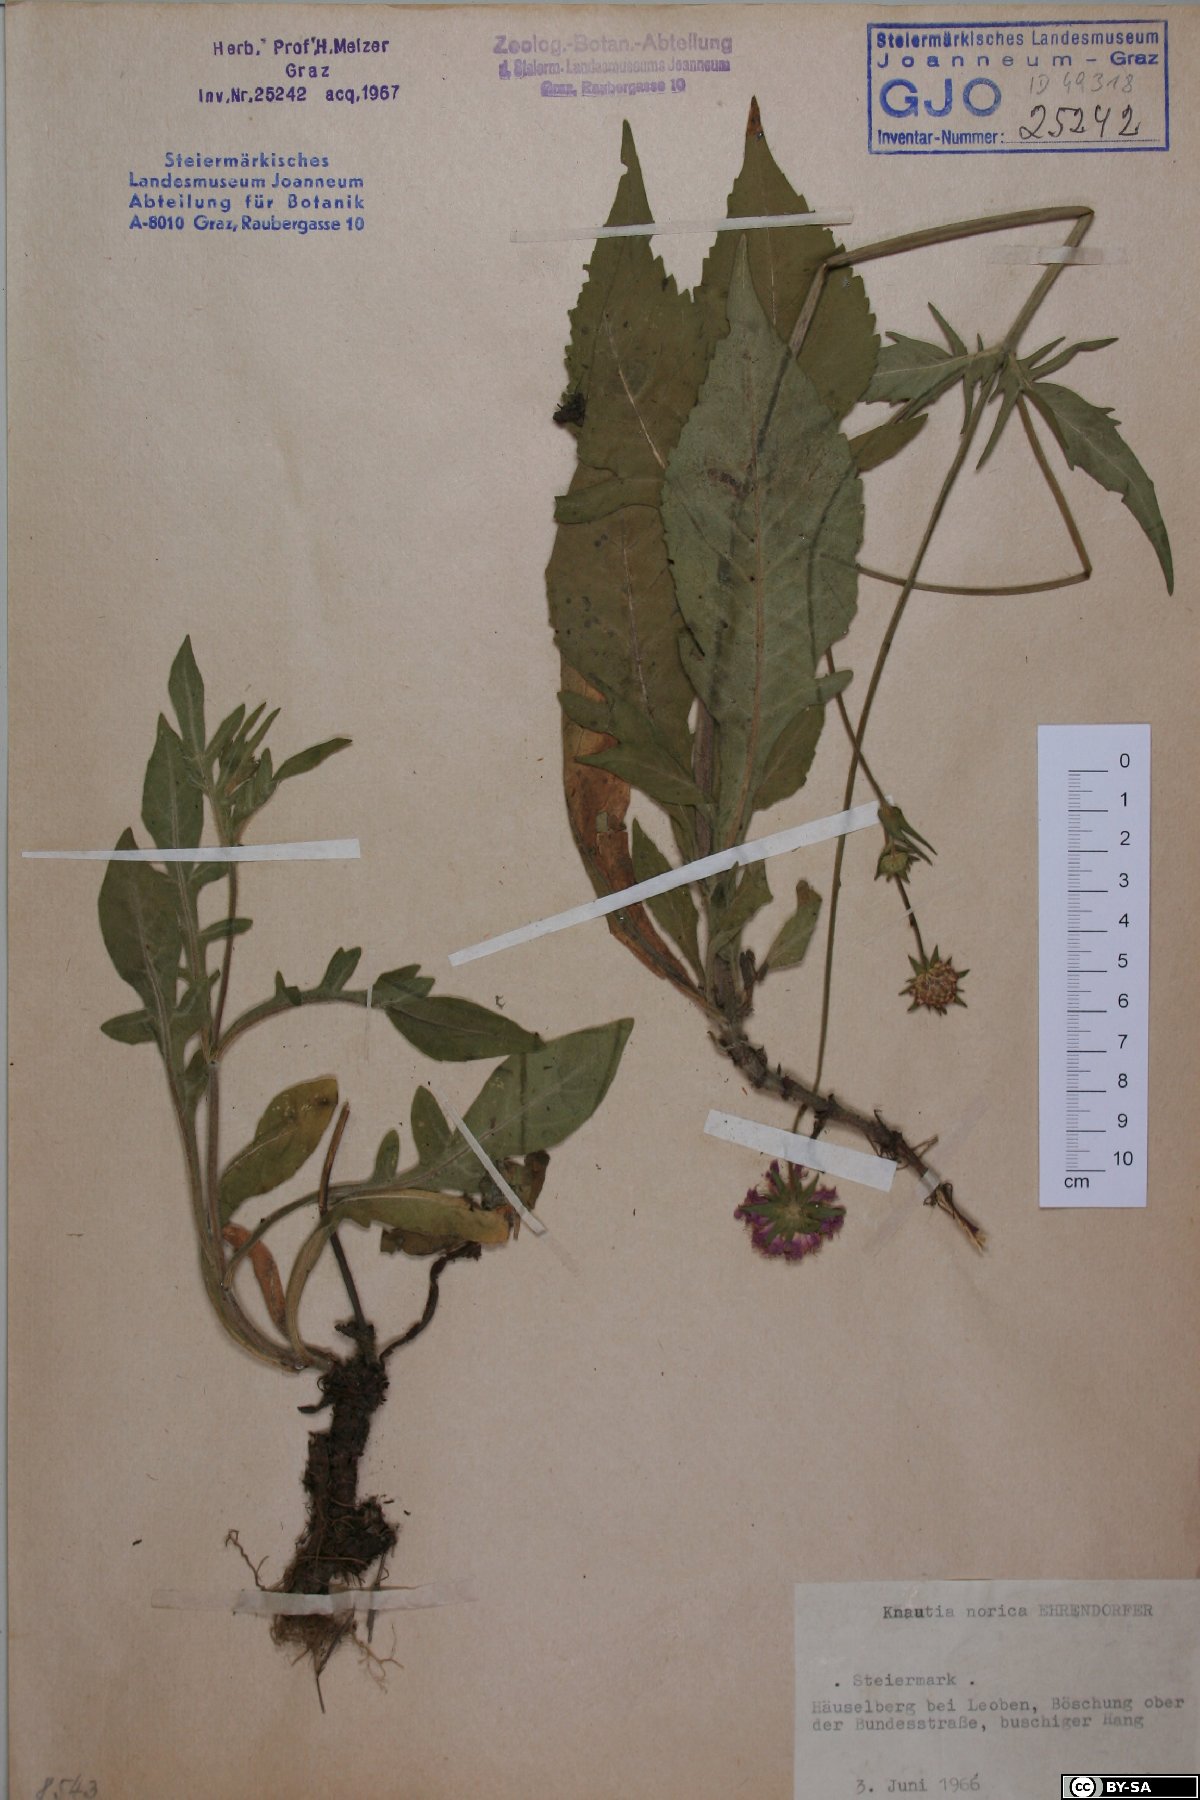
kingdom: Plantae
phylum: Tracheophyta
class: Magnoliopsida
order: Dipsacales
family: Caprifoliaceae
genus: Knautia
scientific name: Knautia norica
